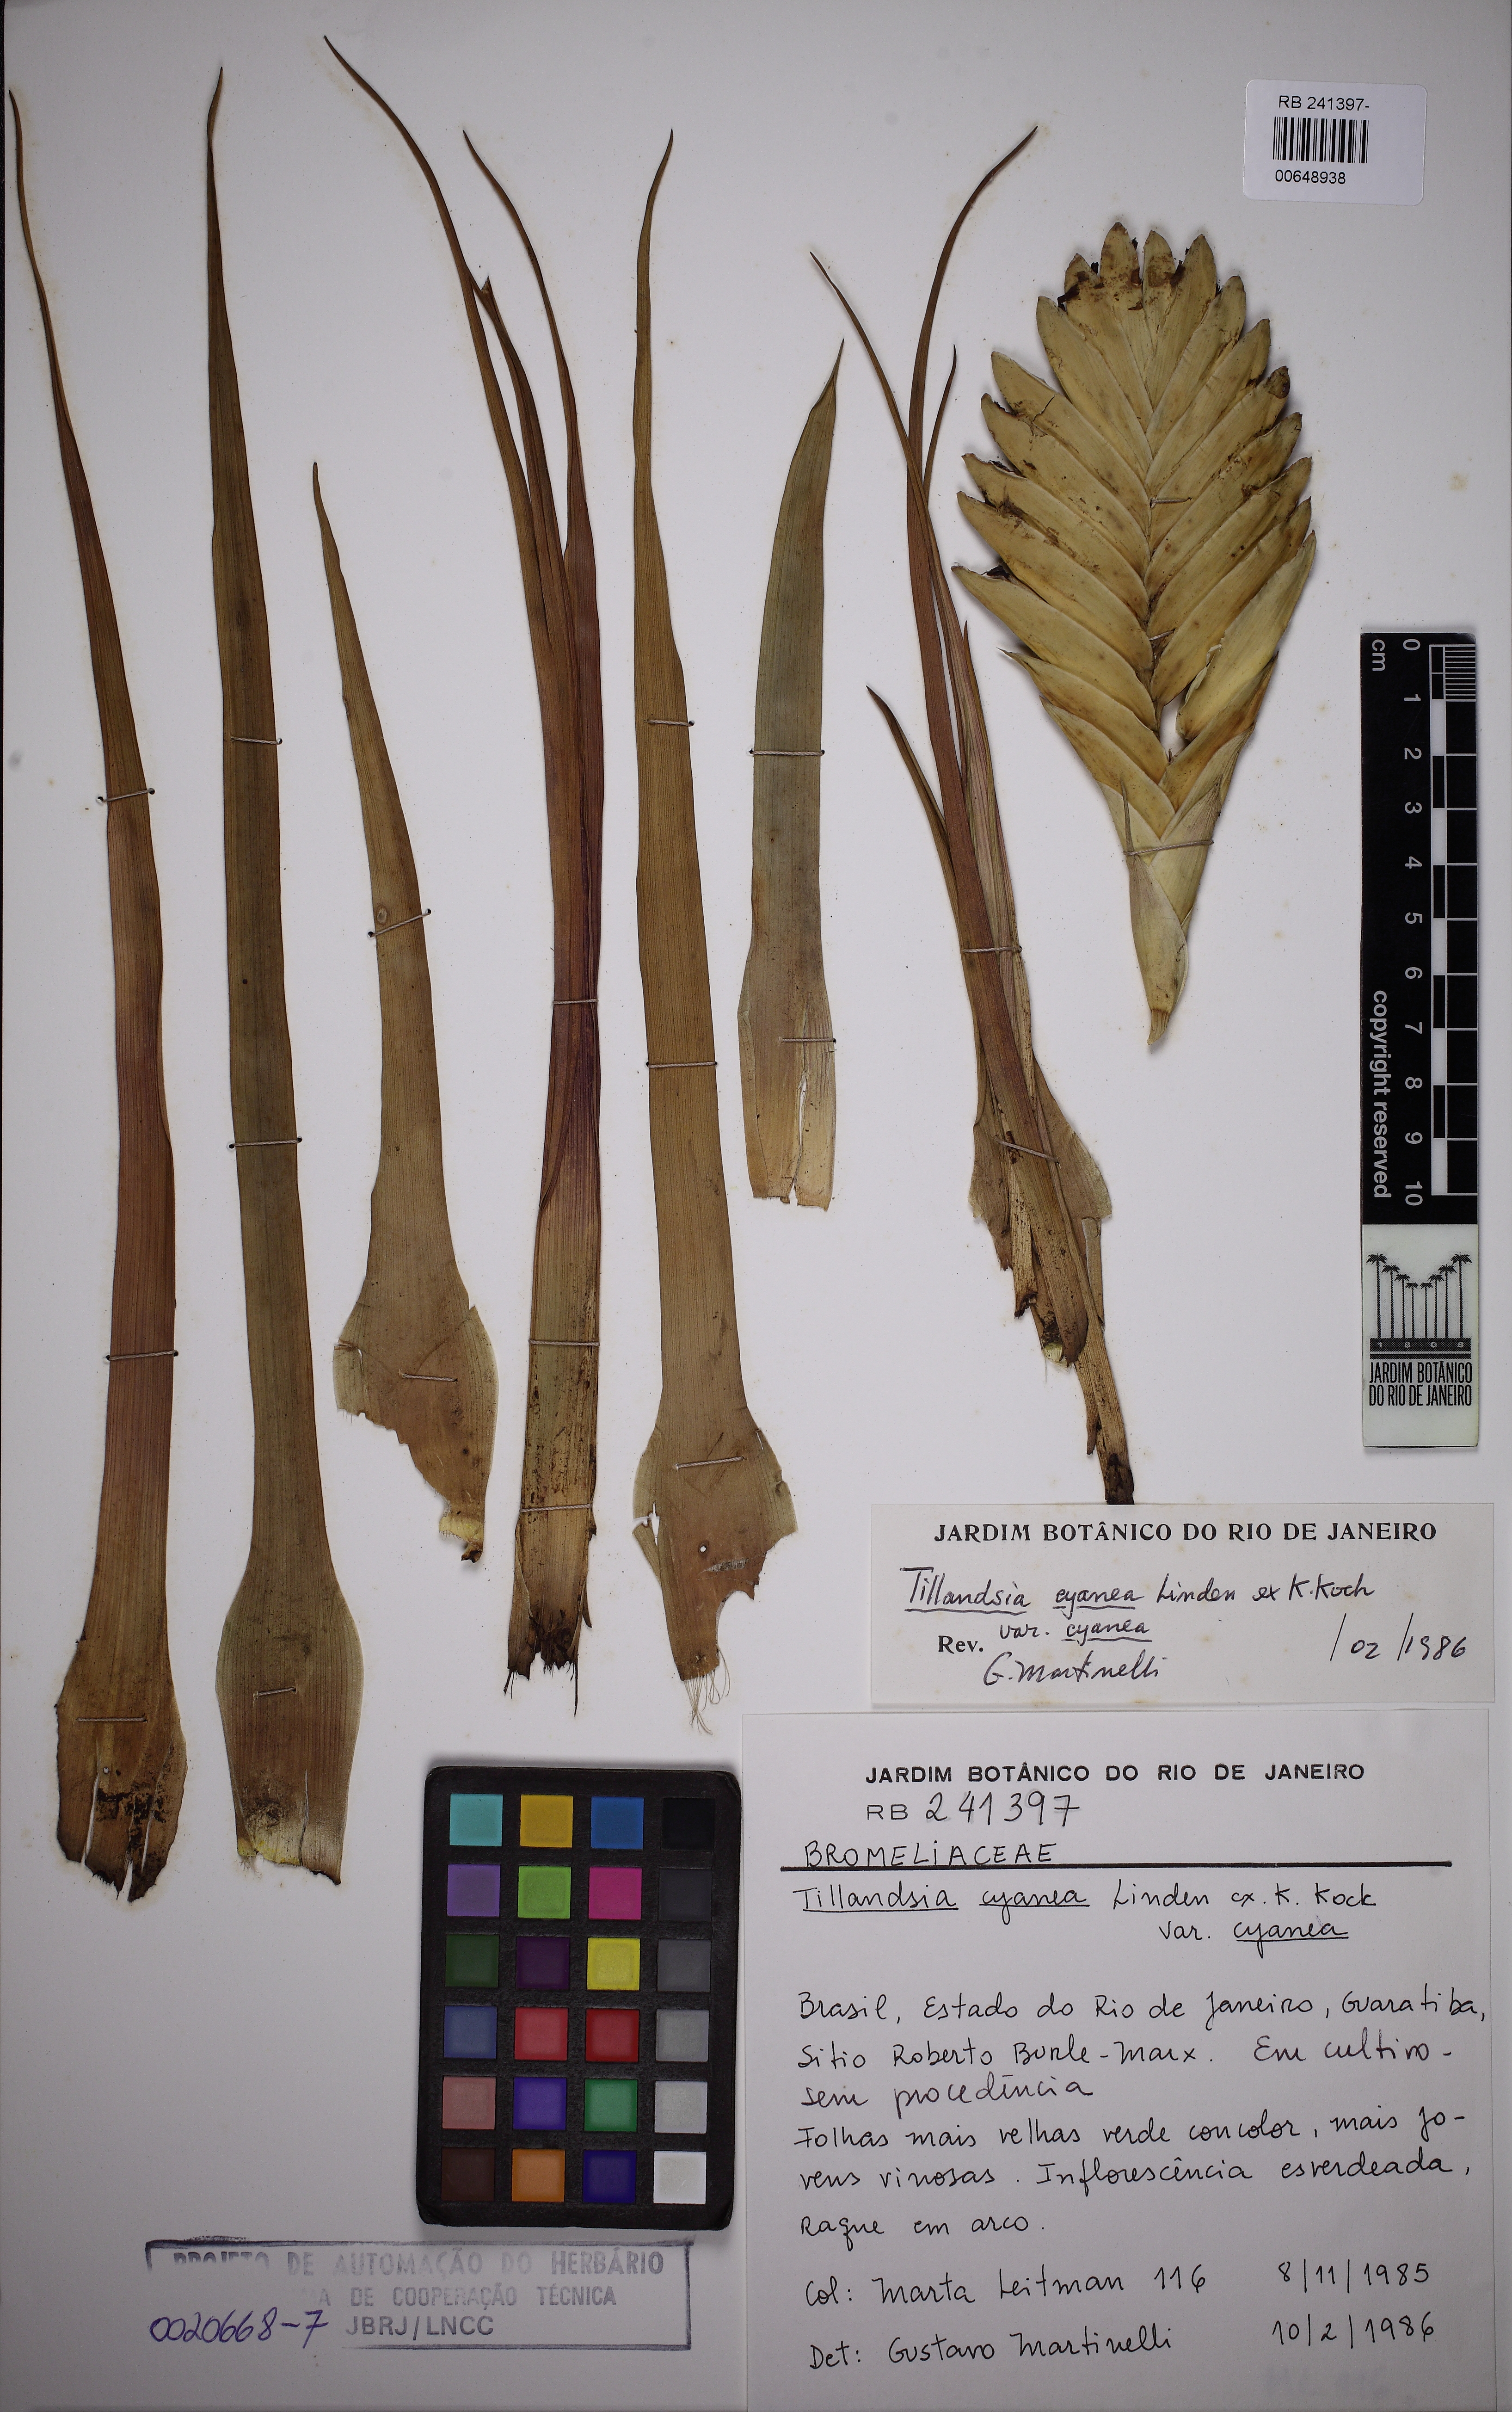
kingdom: Plantae
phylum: Tracheophyta
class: Liliopsida
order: Poales
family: Bromeliaceae
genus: Tillandsia
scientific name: Tillandsia cyanea
